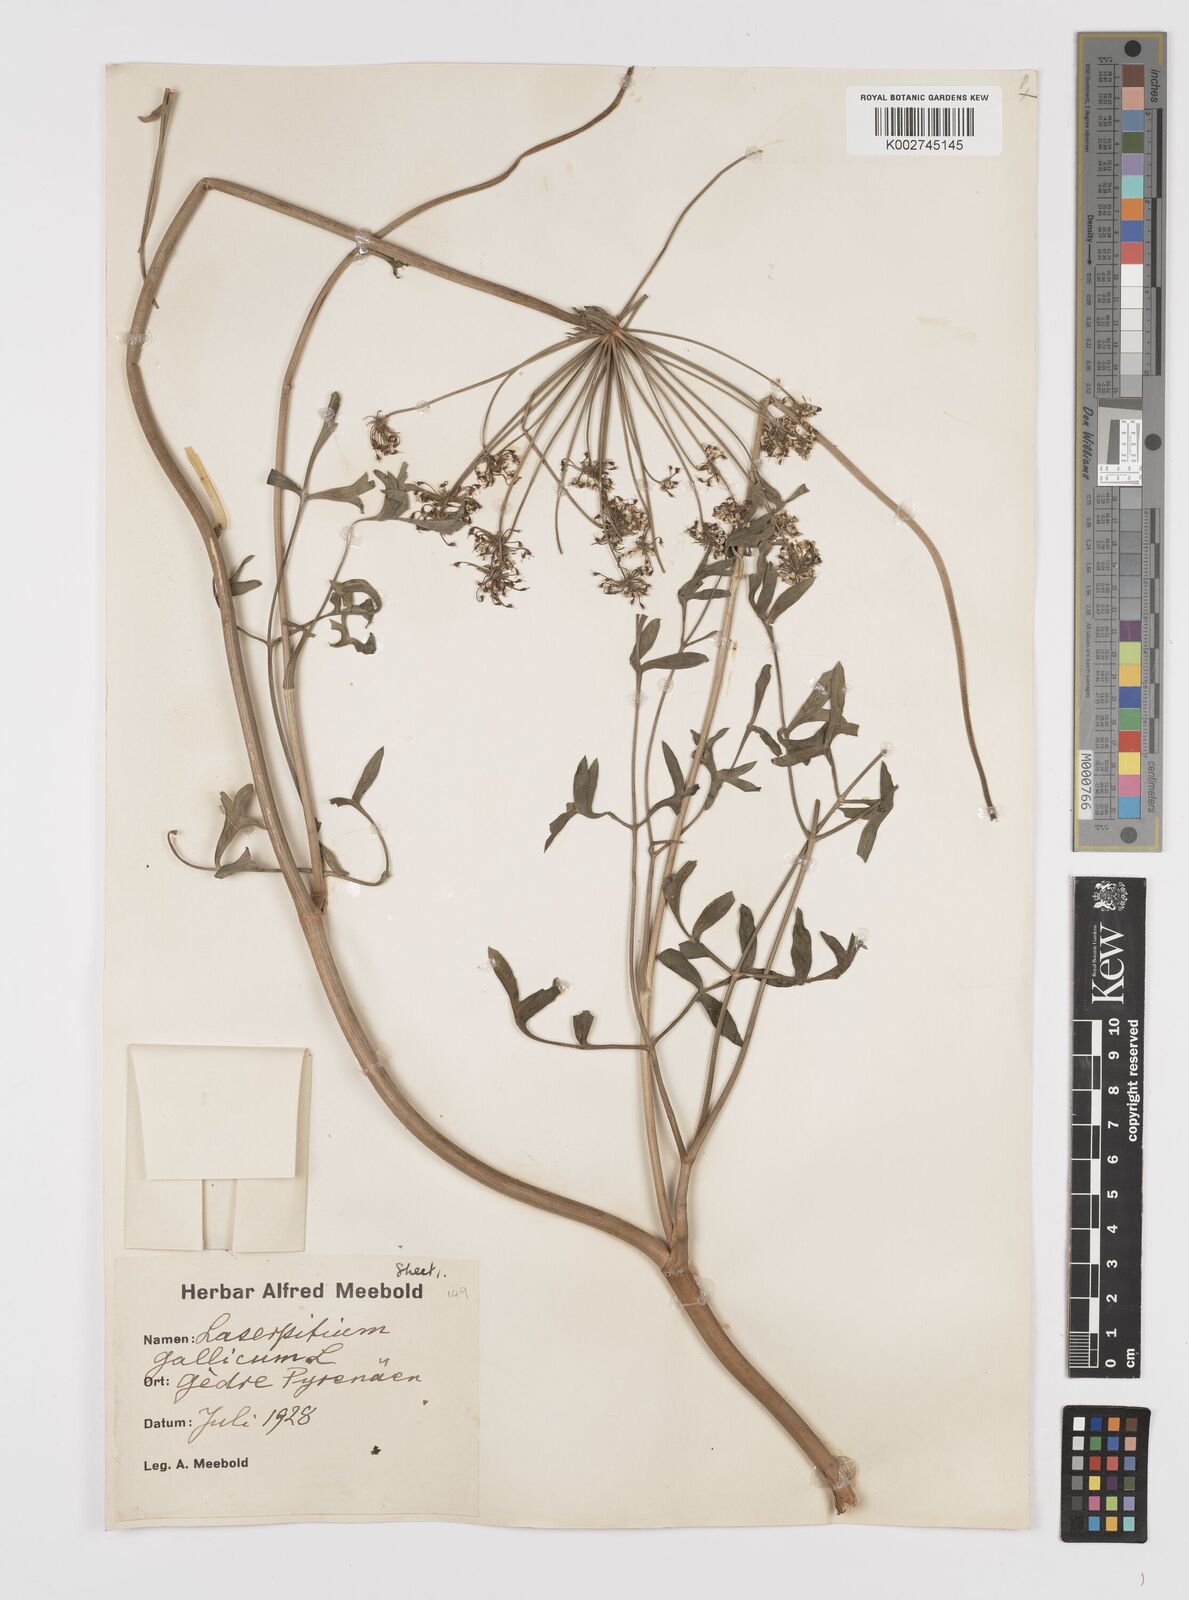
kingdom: Plantae
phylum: Tracheophyta
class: Magnoliopsida
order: Apiales
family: Apiaceae
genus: Laserpitium
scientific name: Laserpitium gallicum
